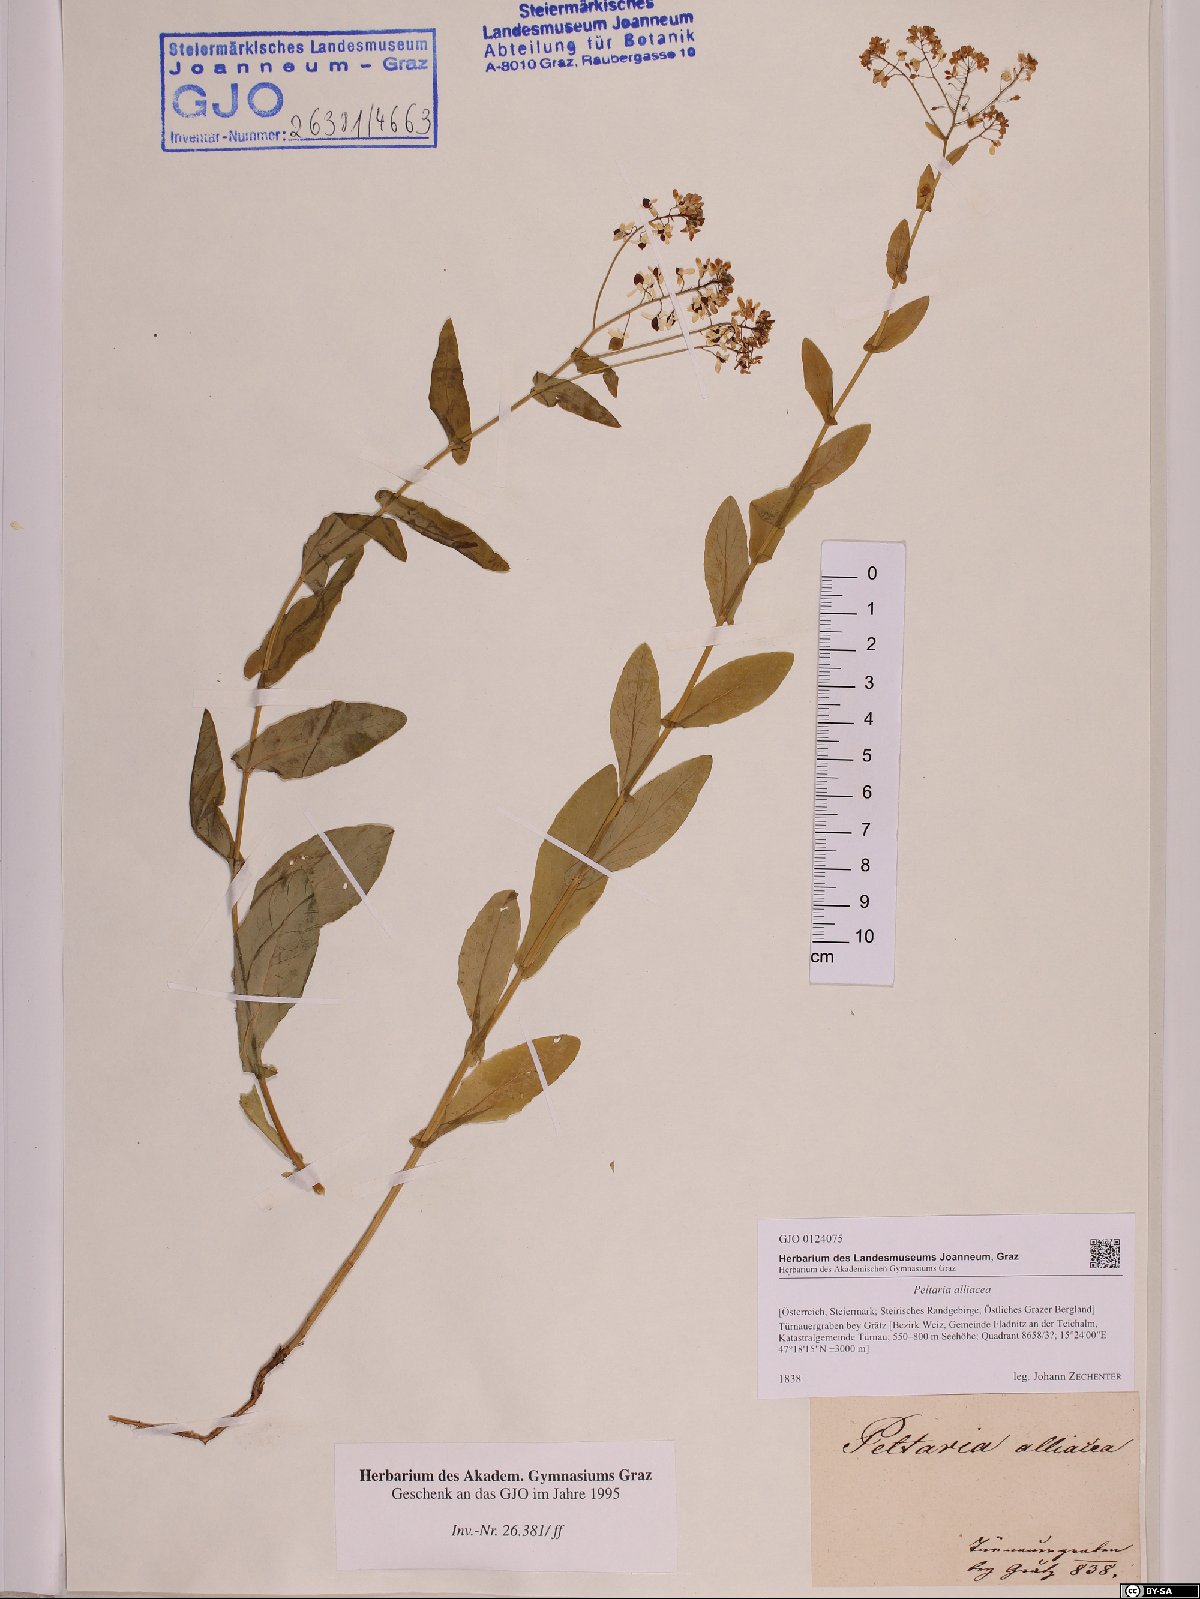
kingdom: Plantae
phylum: Tracheophyta
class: Magnoliopsida
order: Brassicales
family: Brassicaceae
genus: Peltaria
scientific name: Peltaria alliacea
